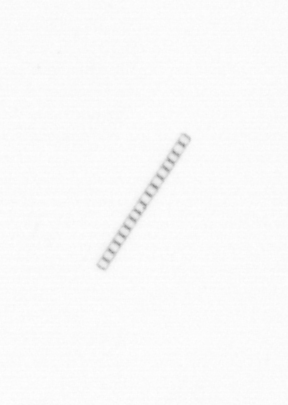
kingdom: Chromista
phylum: Ochrophyta
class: Bacillariophyceae
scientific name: Bacillariophyceae
